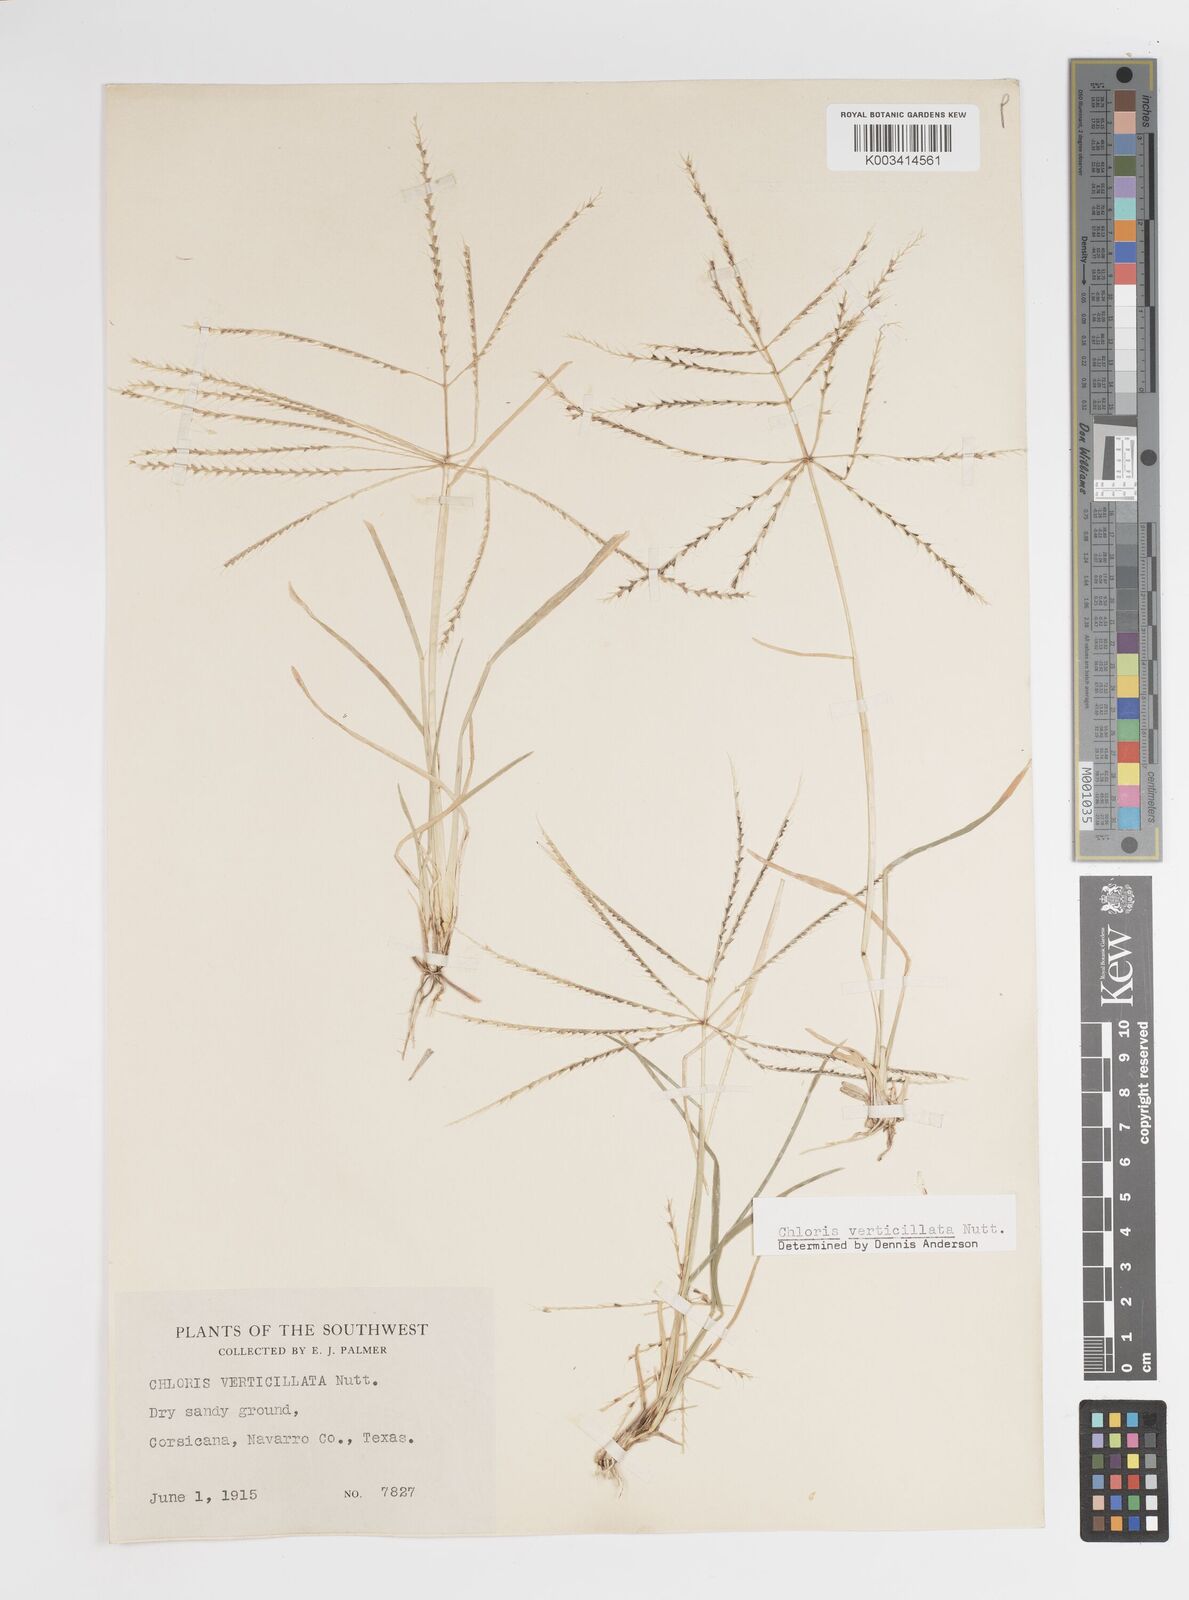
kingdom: Plantae
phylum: Tracheophyta
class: Liliopsida
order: Poales
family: Poaceae
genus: Chloris
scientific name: Chloris verticillata
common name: Tumble windmill grass
